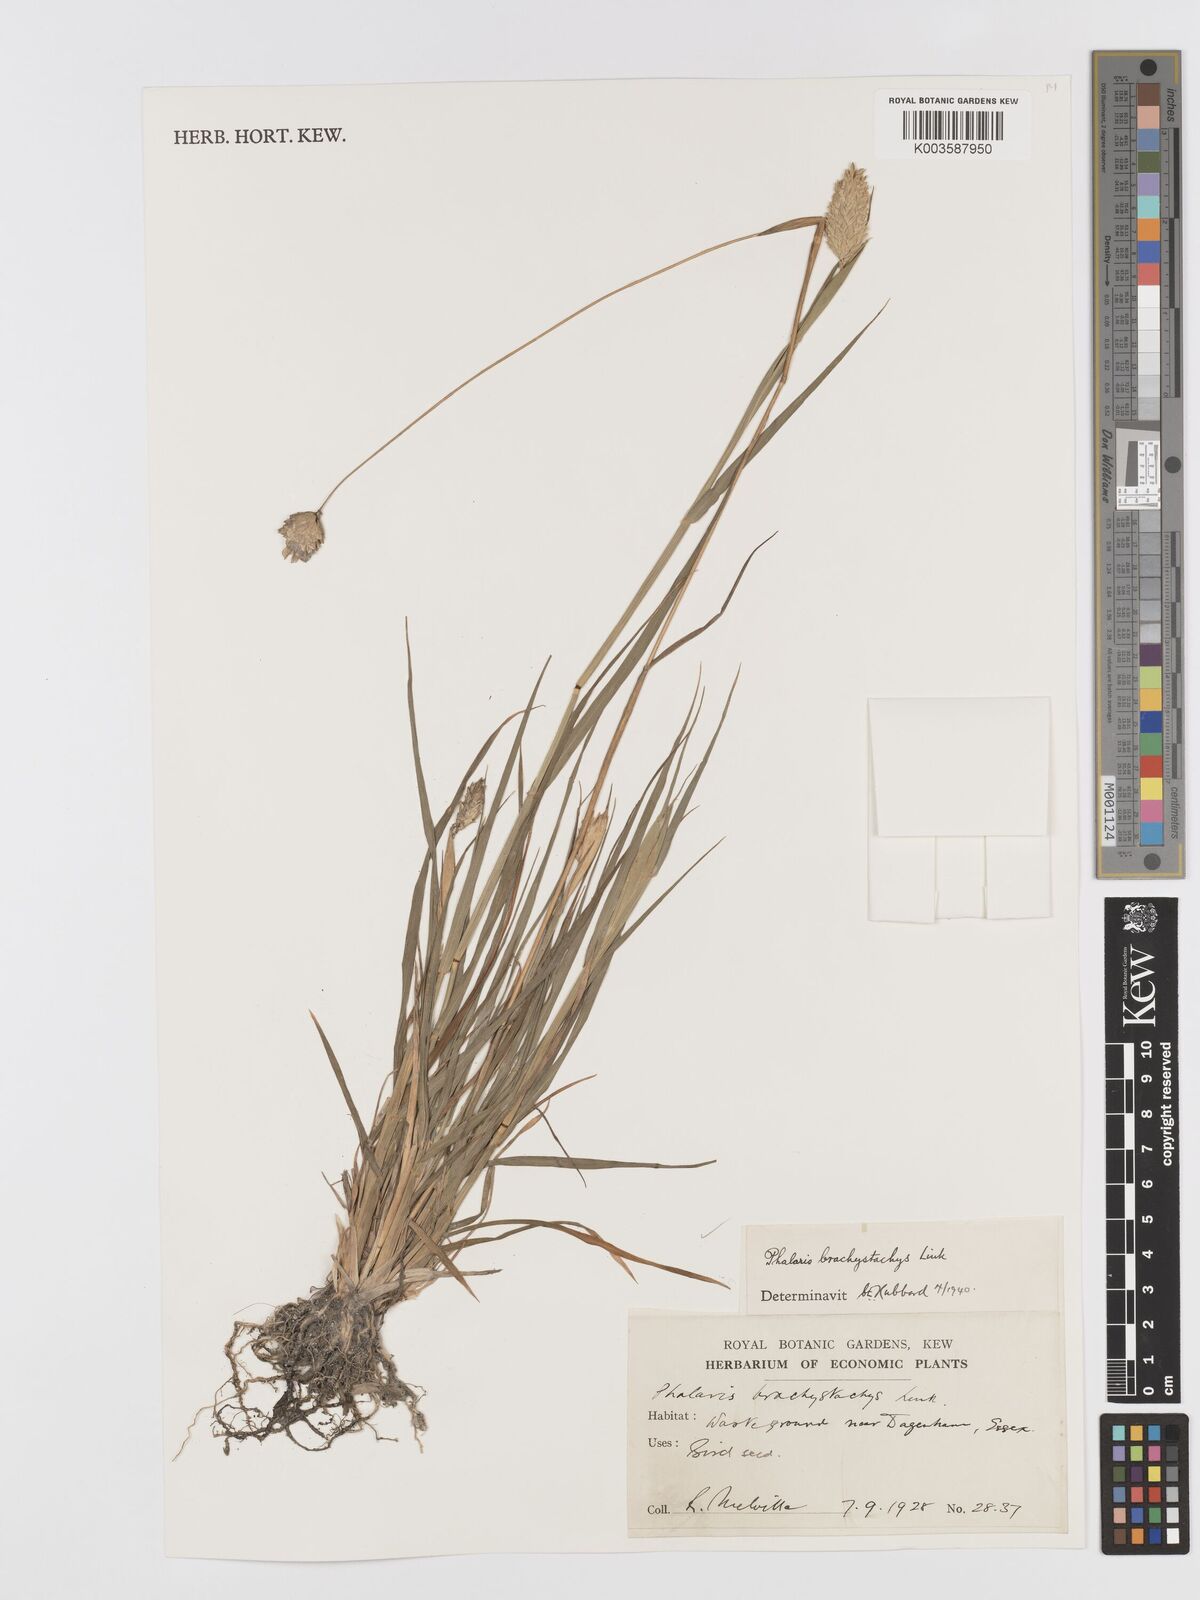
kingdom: Plantae
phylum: Tracheophyta
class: Liliopsida
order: Poales
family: Poaceae
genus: Phalaris
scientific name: Phalaris brachystachys
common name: Confused canary-grass
